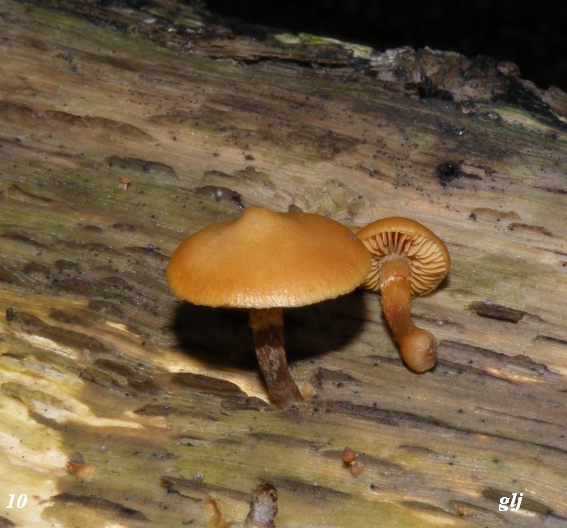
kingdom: Fungi
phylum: Basidiomycota
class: Agaricomycetes
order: Agaricales
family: Hymenogastraceae
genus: Galerina
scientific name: Galerina marginata
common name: randbæltet hjelmhat
